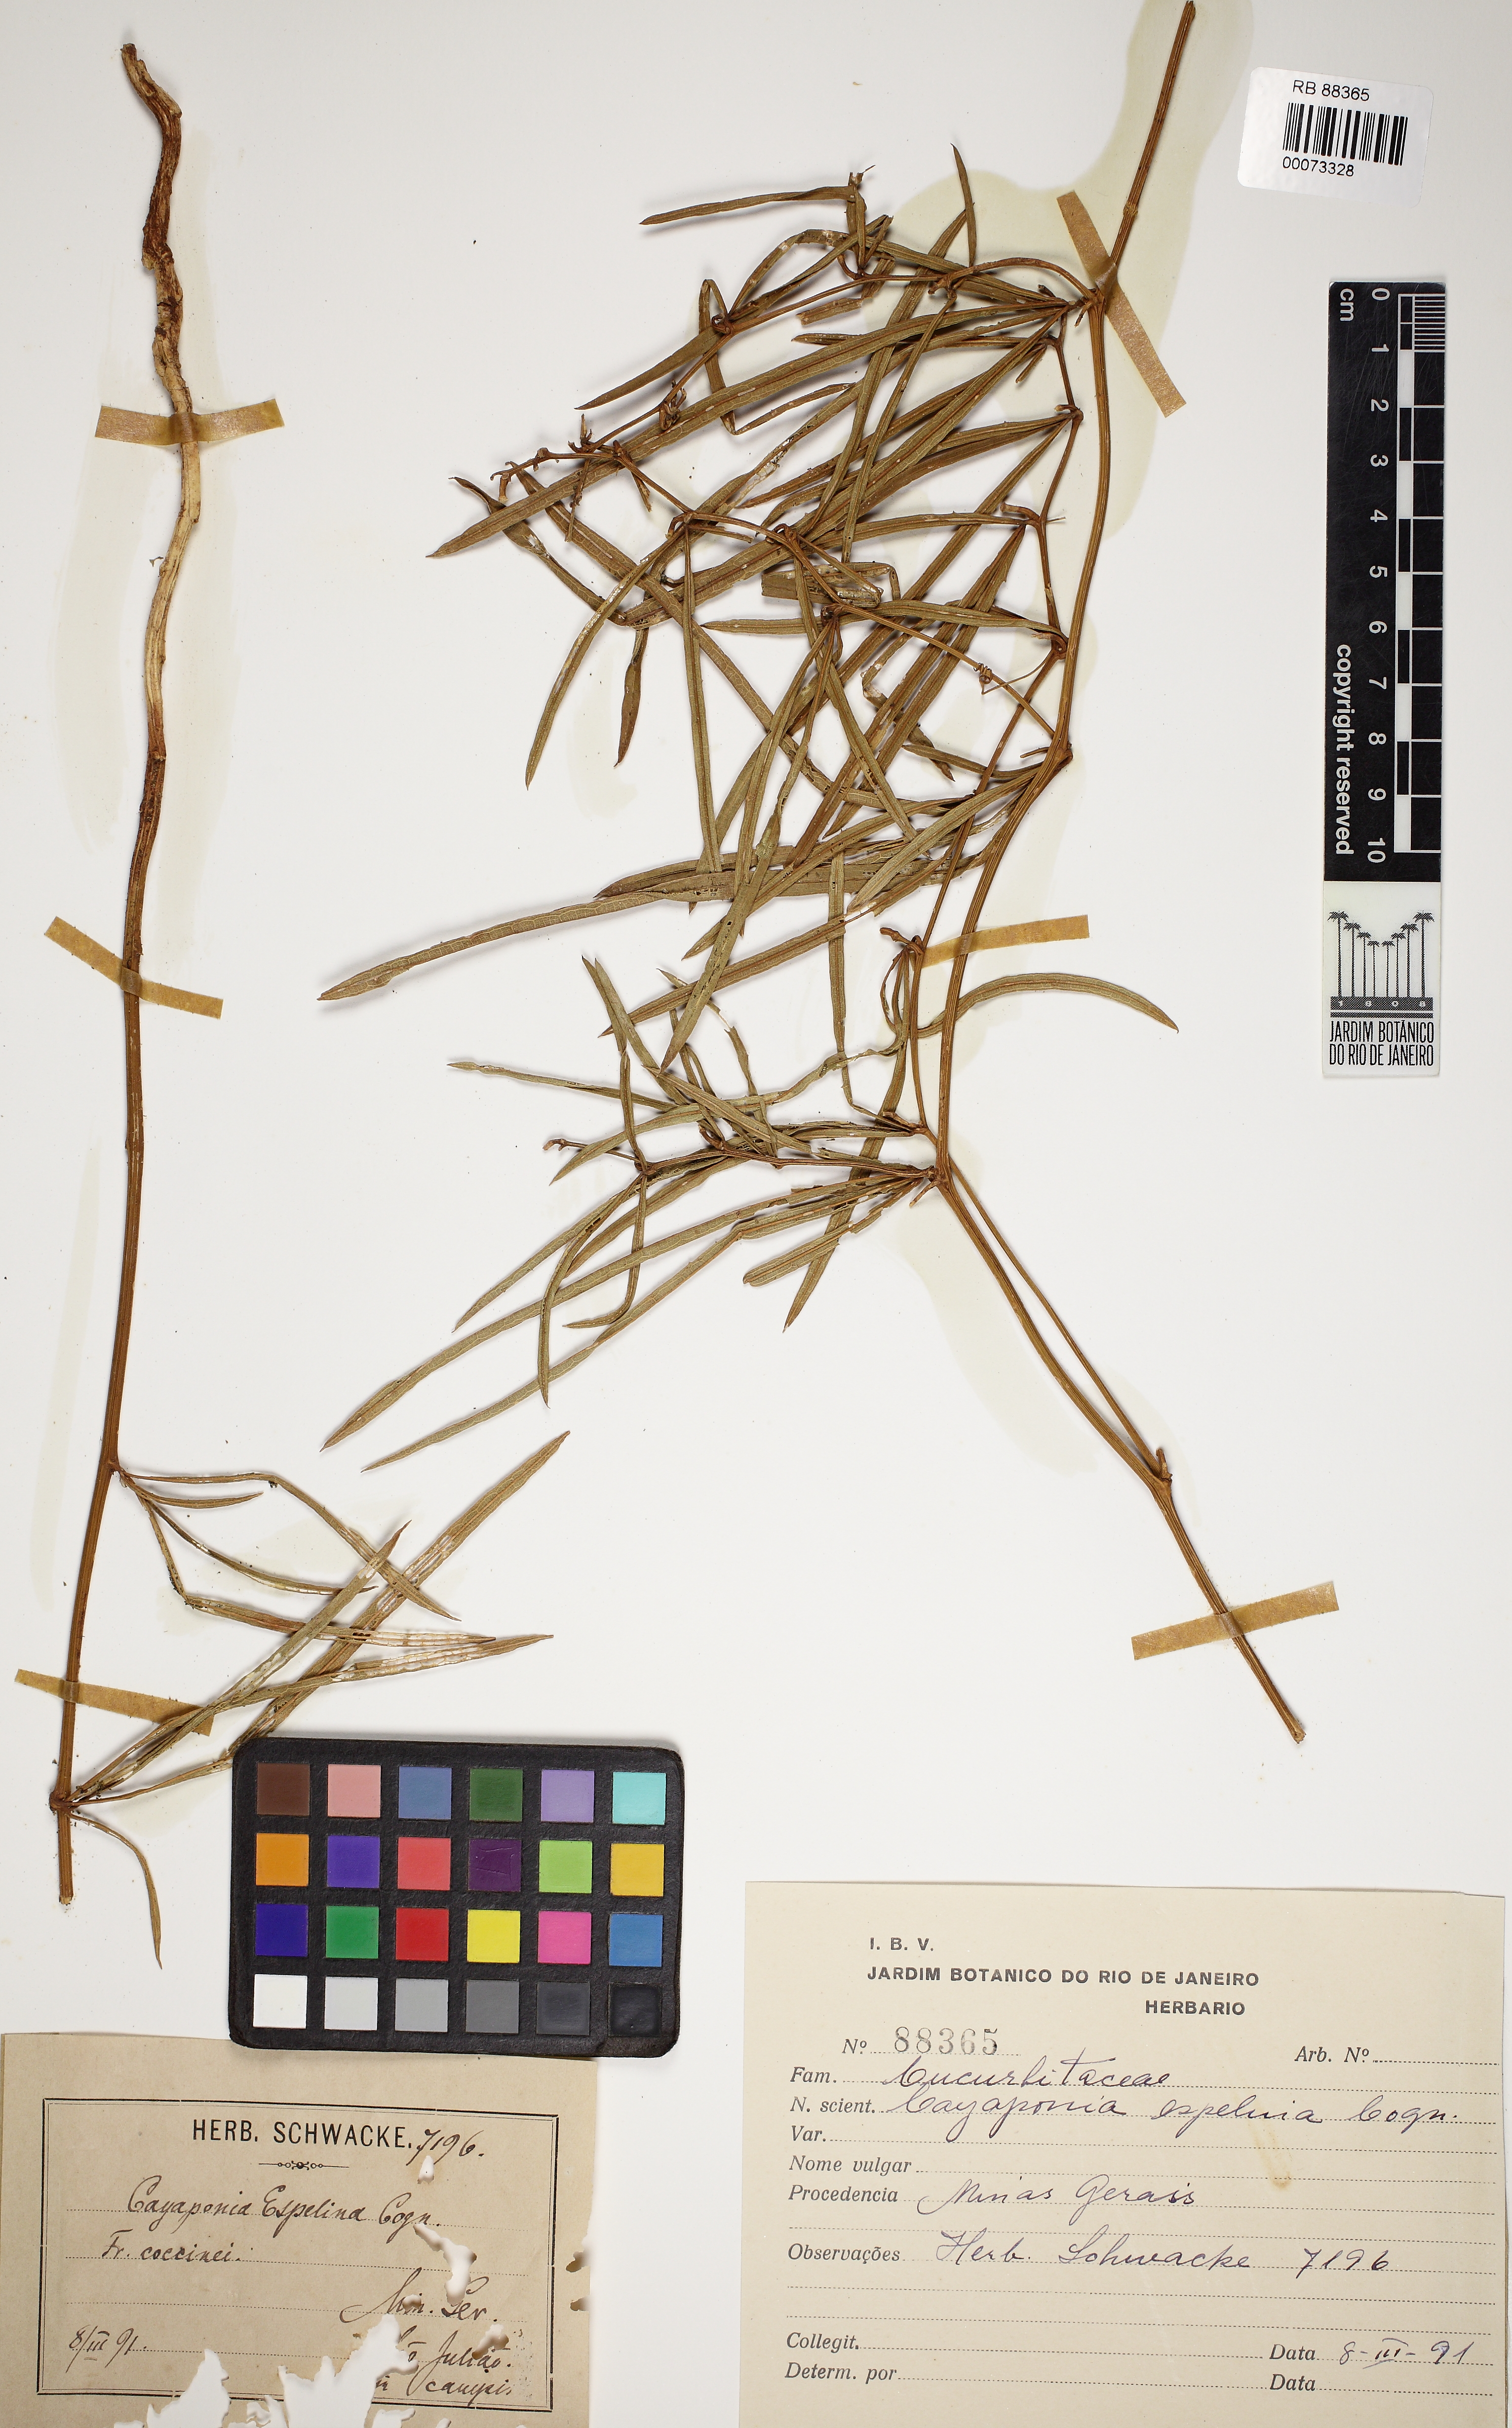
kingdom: Plantae
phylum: Tracheophyta
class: Magnoliopsida
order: Cucurbitales
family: Cucurbitaceae
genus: Cayaponia
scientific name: Cayaponia espelina
